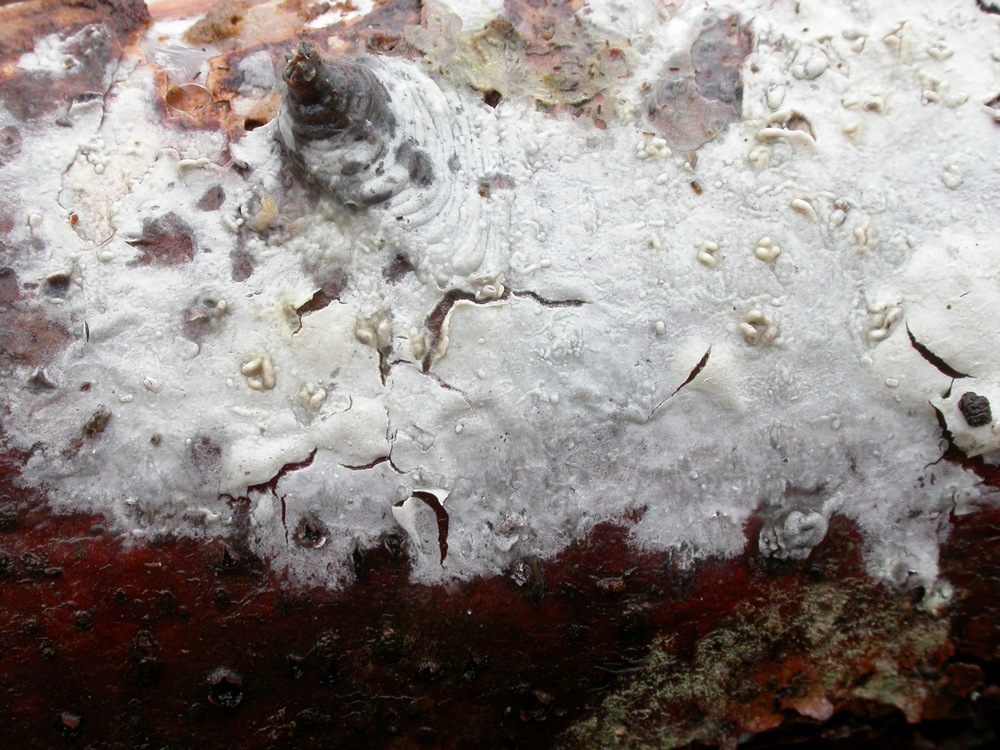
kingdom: Fungi
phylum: Basidiomycota
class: Agaricomycetes
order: Russulales
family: Stereaceae
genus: Gloeocystidiellum
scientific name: Gloeocystidiellum clavuligerum
